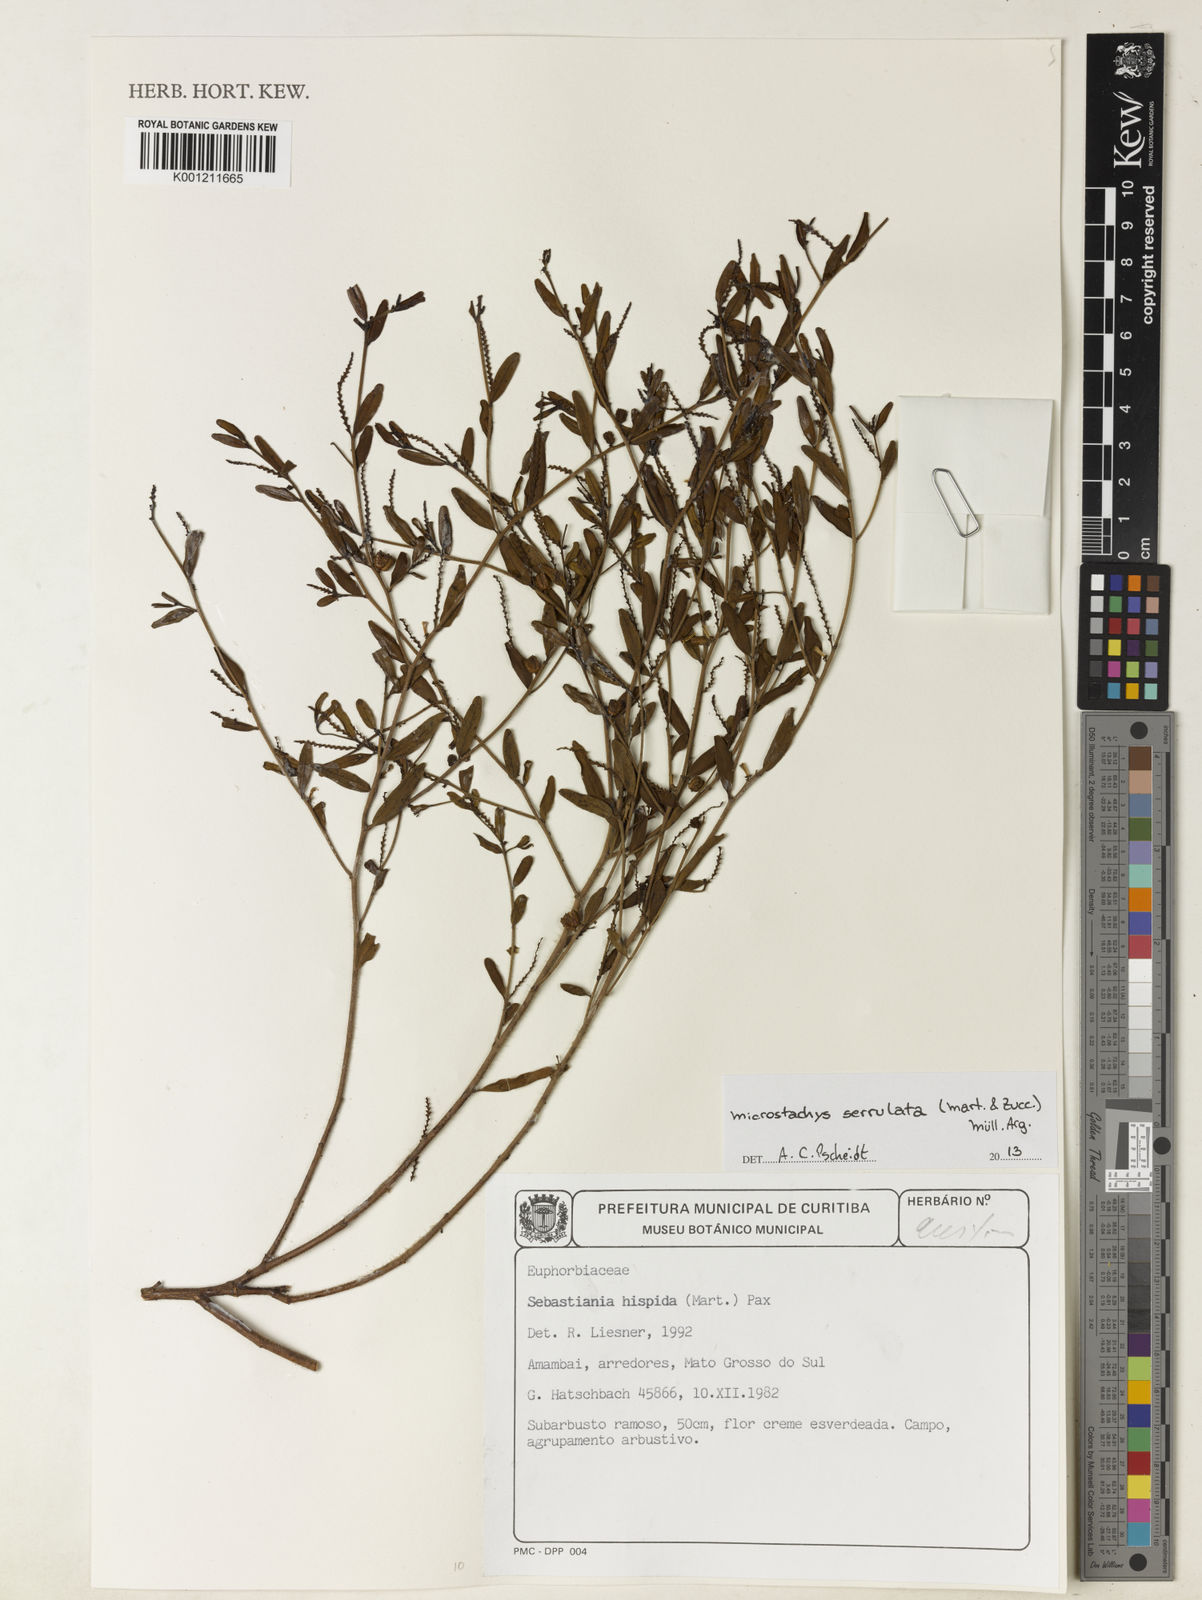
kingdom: Plantae
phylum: Tracheophyta
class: Magnoliopsida
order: Malpighiales
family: Euphorbiaceae
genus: Microstachys
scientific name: Microstachys
